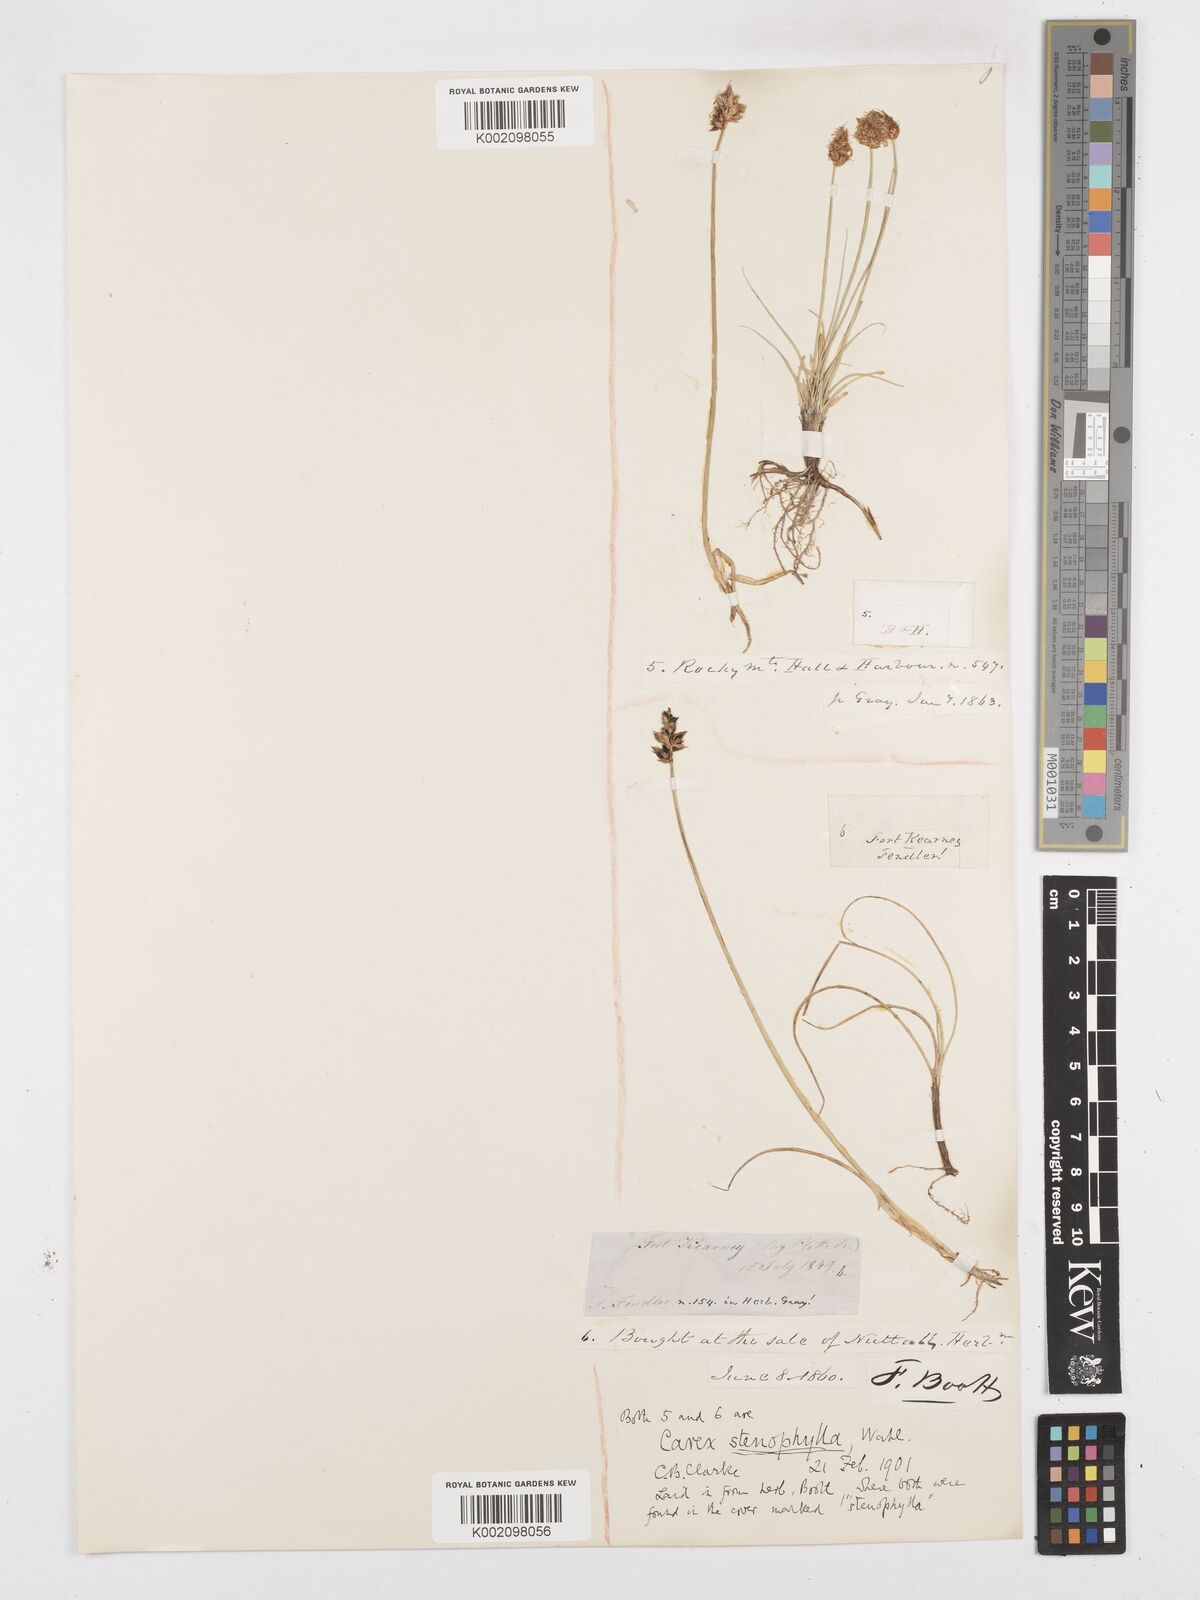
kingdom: Plantae
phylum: Tracheophyta
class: Liliopsida
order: Poales
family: Cyperaceae
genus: Carex
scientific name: Carex duriuscula
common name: Involute-leaved sedge
